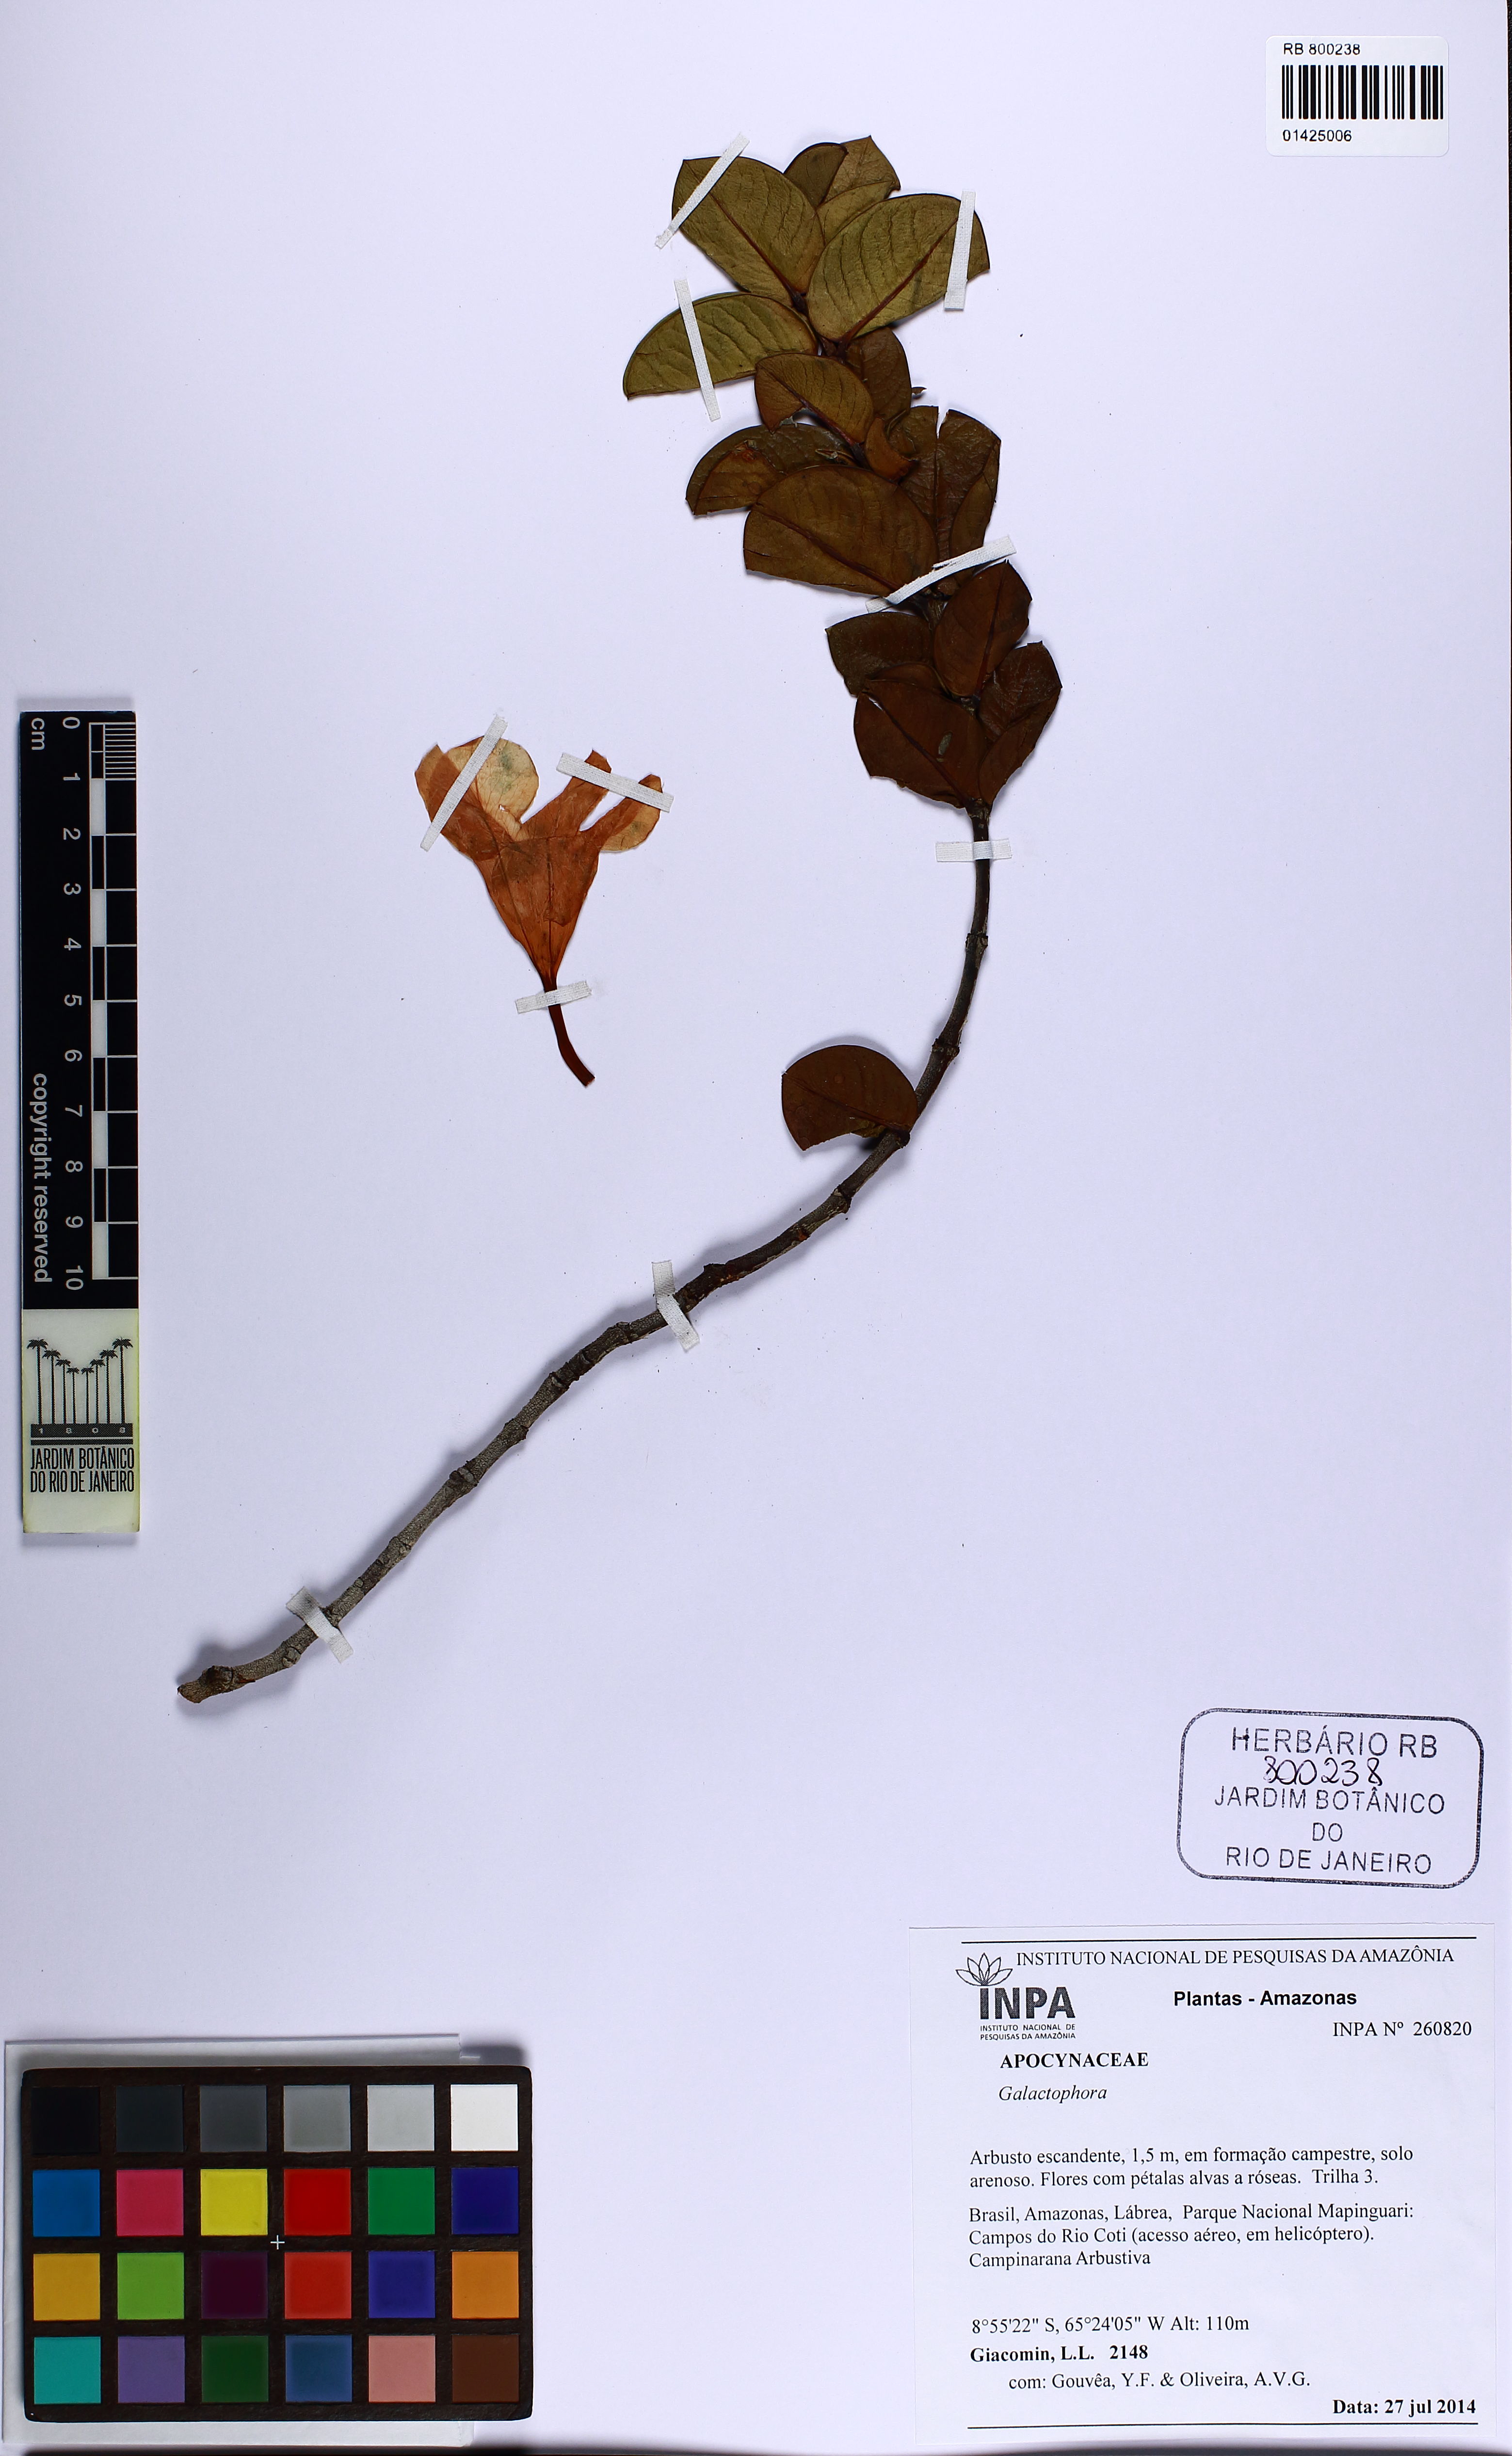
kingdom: Plantae
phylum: Tracheophyta
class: Magnoliopsida
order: Gentianales
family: Apocynaceae
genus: Galactophora
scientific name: Galactophora
